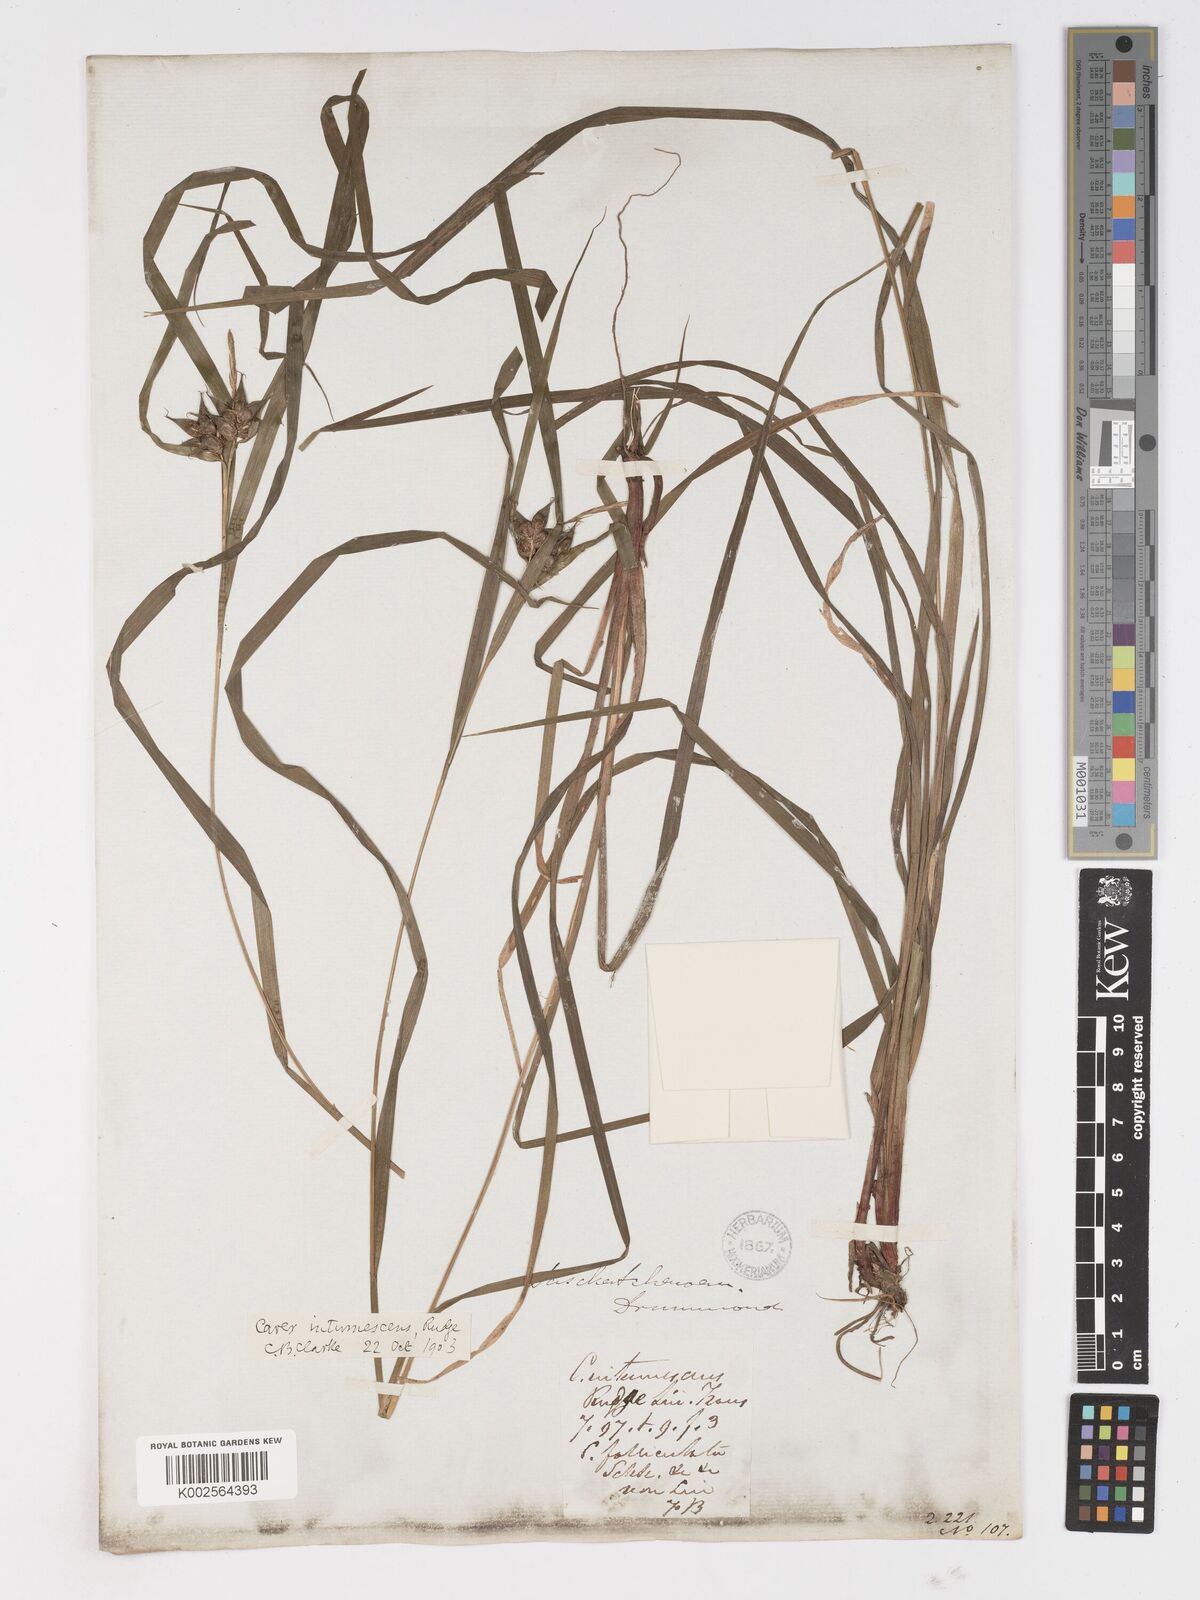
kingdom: Plantae
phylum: Tracheophyta
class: Liliopsida
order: Poales
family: Cyperaceae
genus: Carex
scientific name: Carex intumescens
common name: Greater bladder sedge
